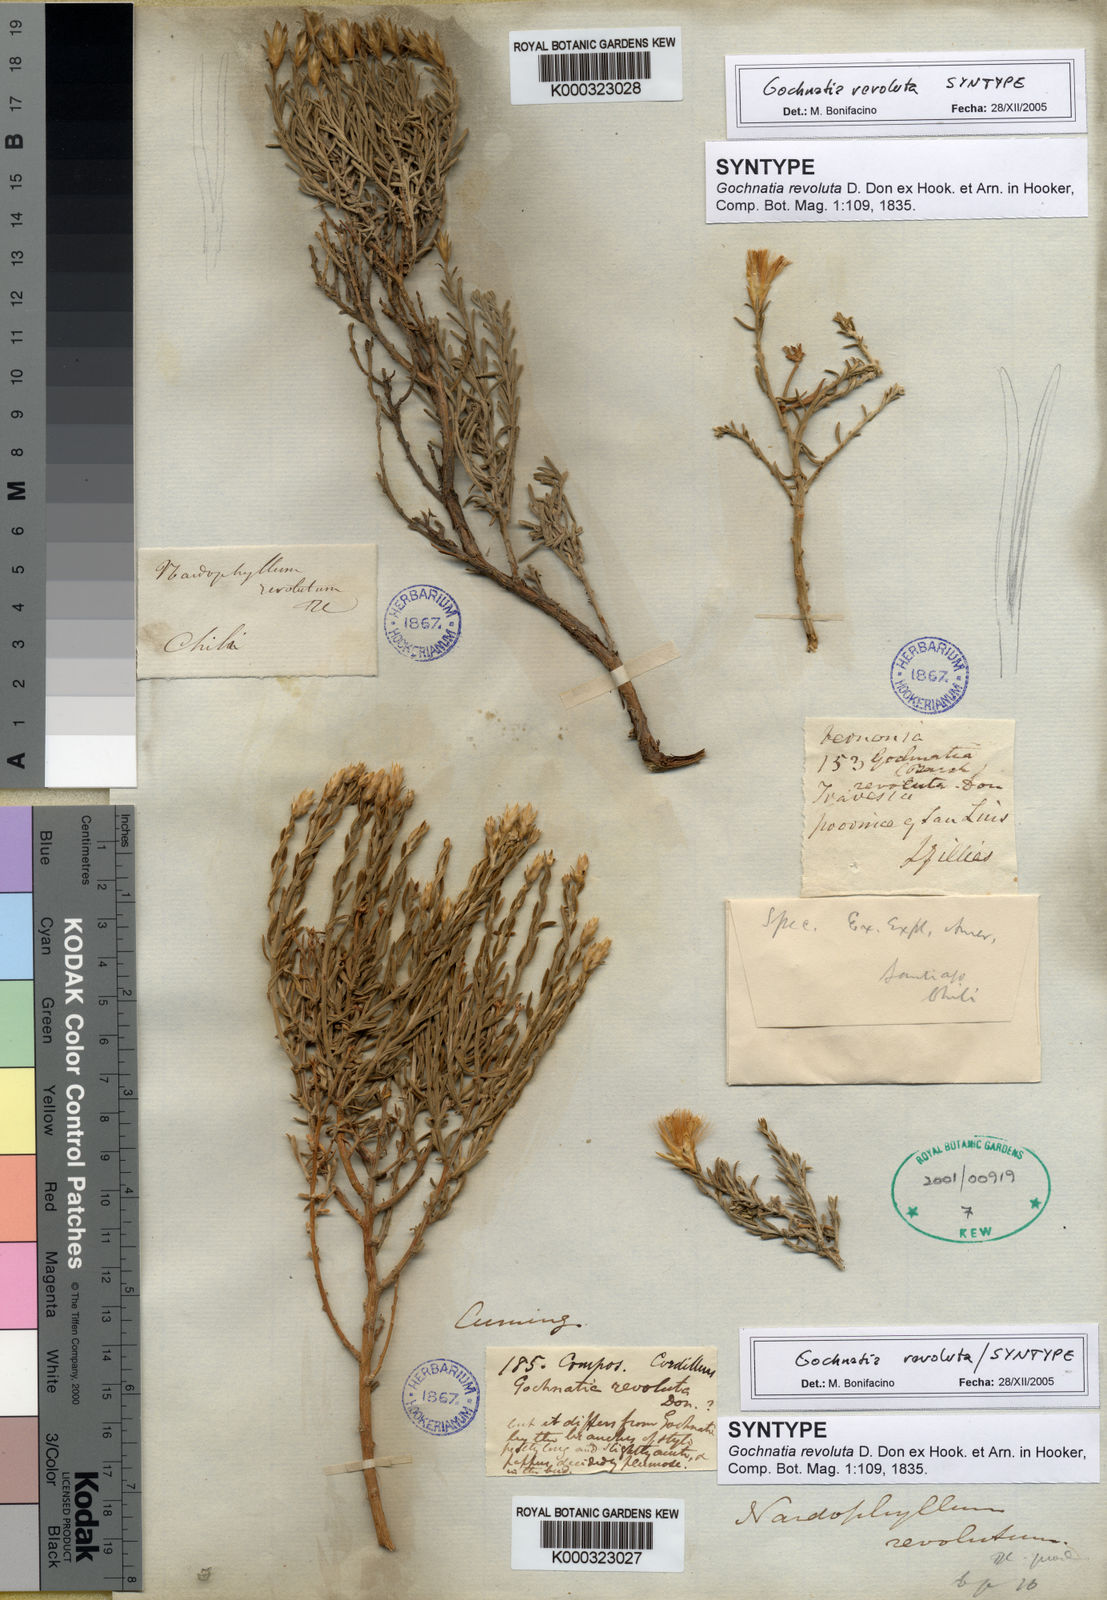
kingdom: Plantae
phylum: Tracheophyta
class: Magnoliopsida
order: Asterales
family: Asteraceae
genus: Nardophyllum
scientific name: Nardophyllum lanatum
